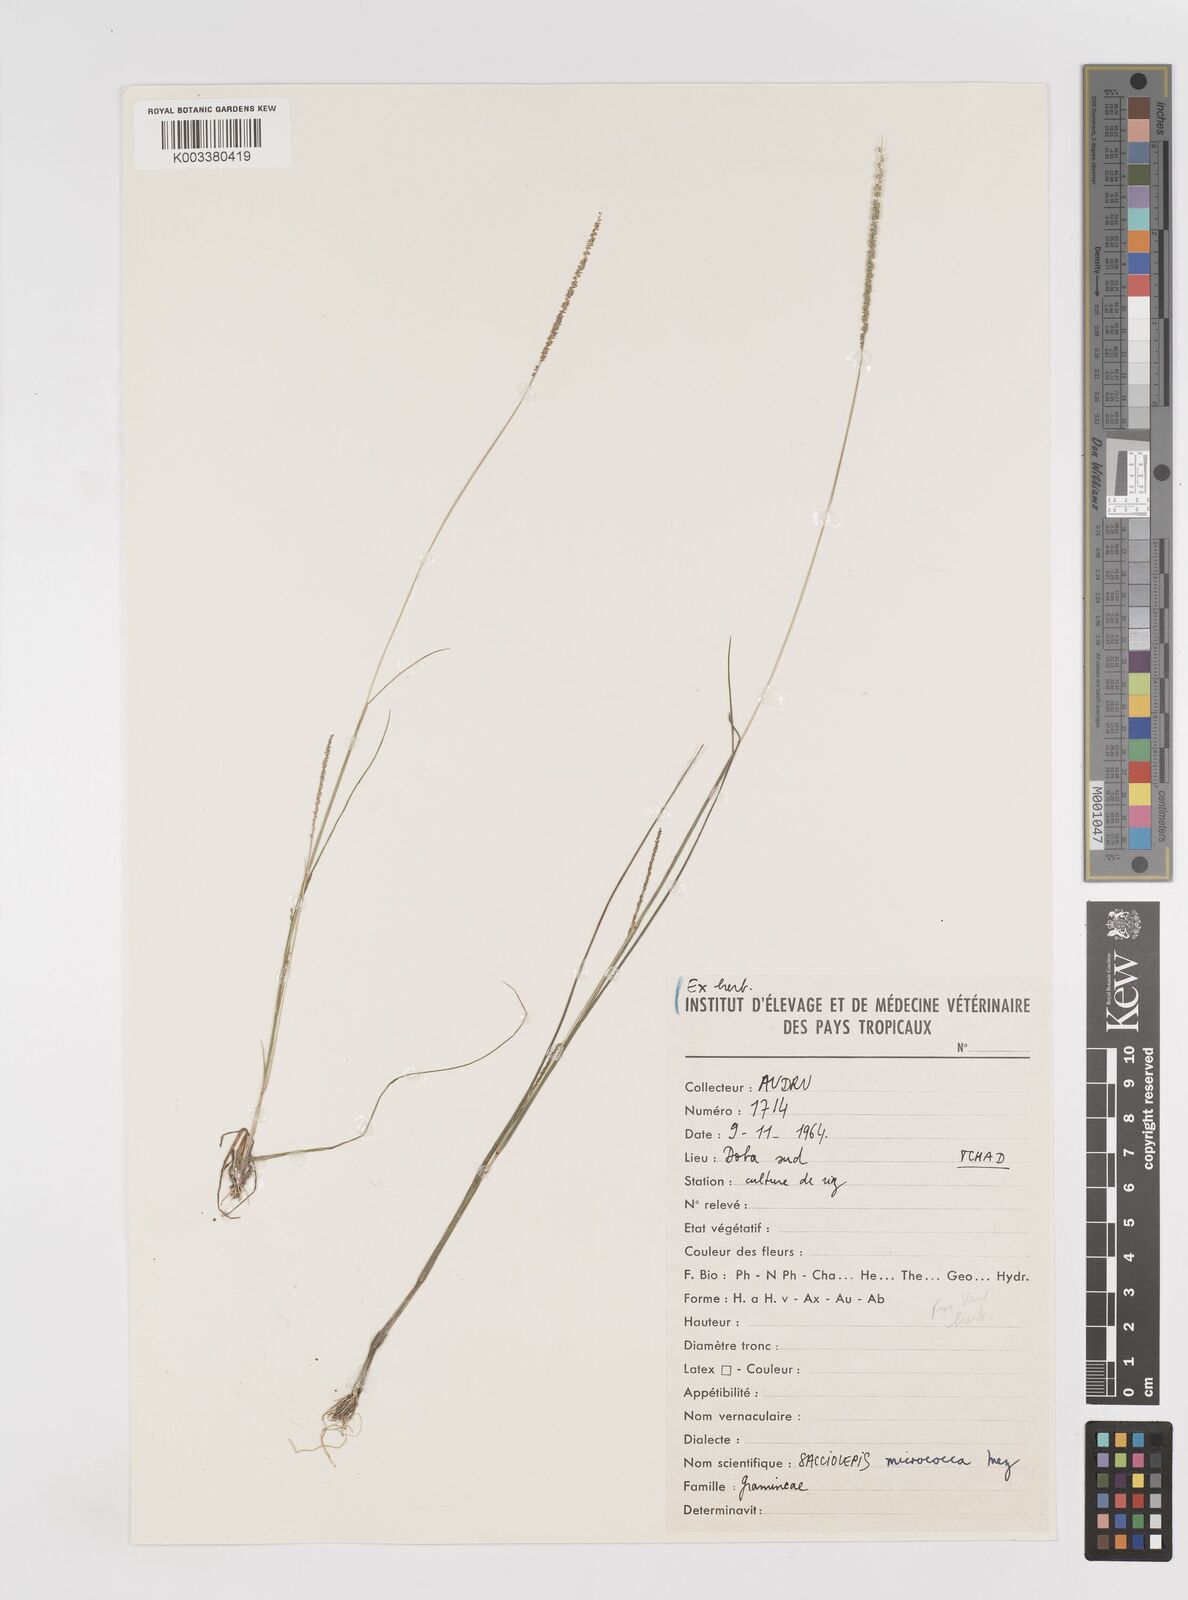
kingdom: Plantae
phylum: Tracheophyta
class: Liliopsida
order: Poales
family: Poaceae
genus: Sacciolepis
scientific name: Sacciolepis micrococca
